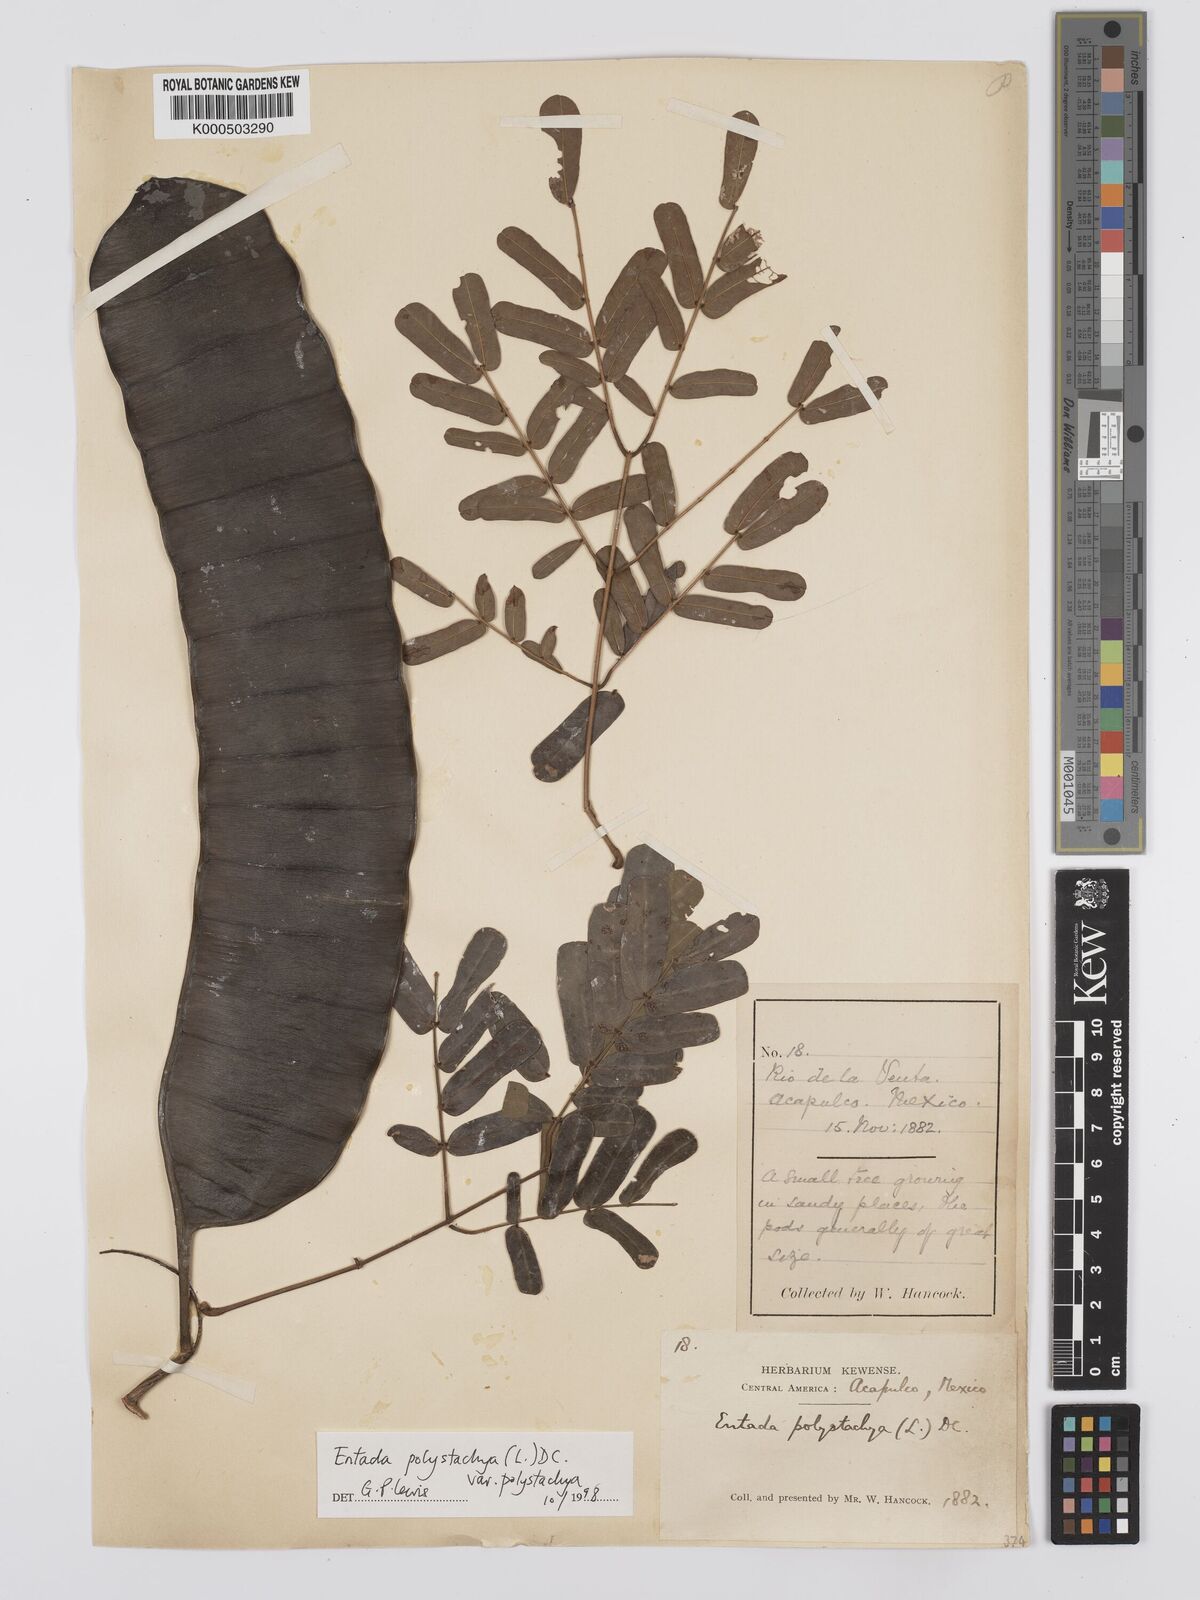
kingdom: Plantae
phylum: Tracheophyta
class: Magnoliopsida
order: Fabales
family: Fabaceae
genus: Entada
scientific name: Entada polystachya
